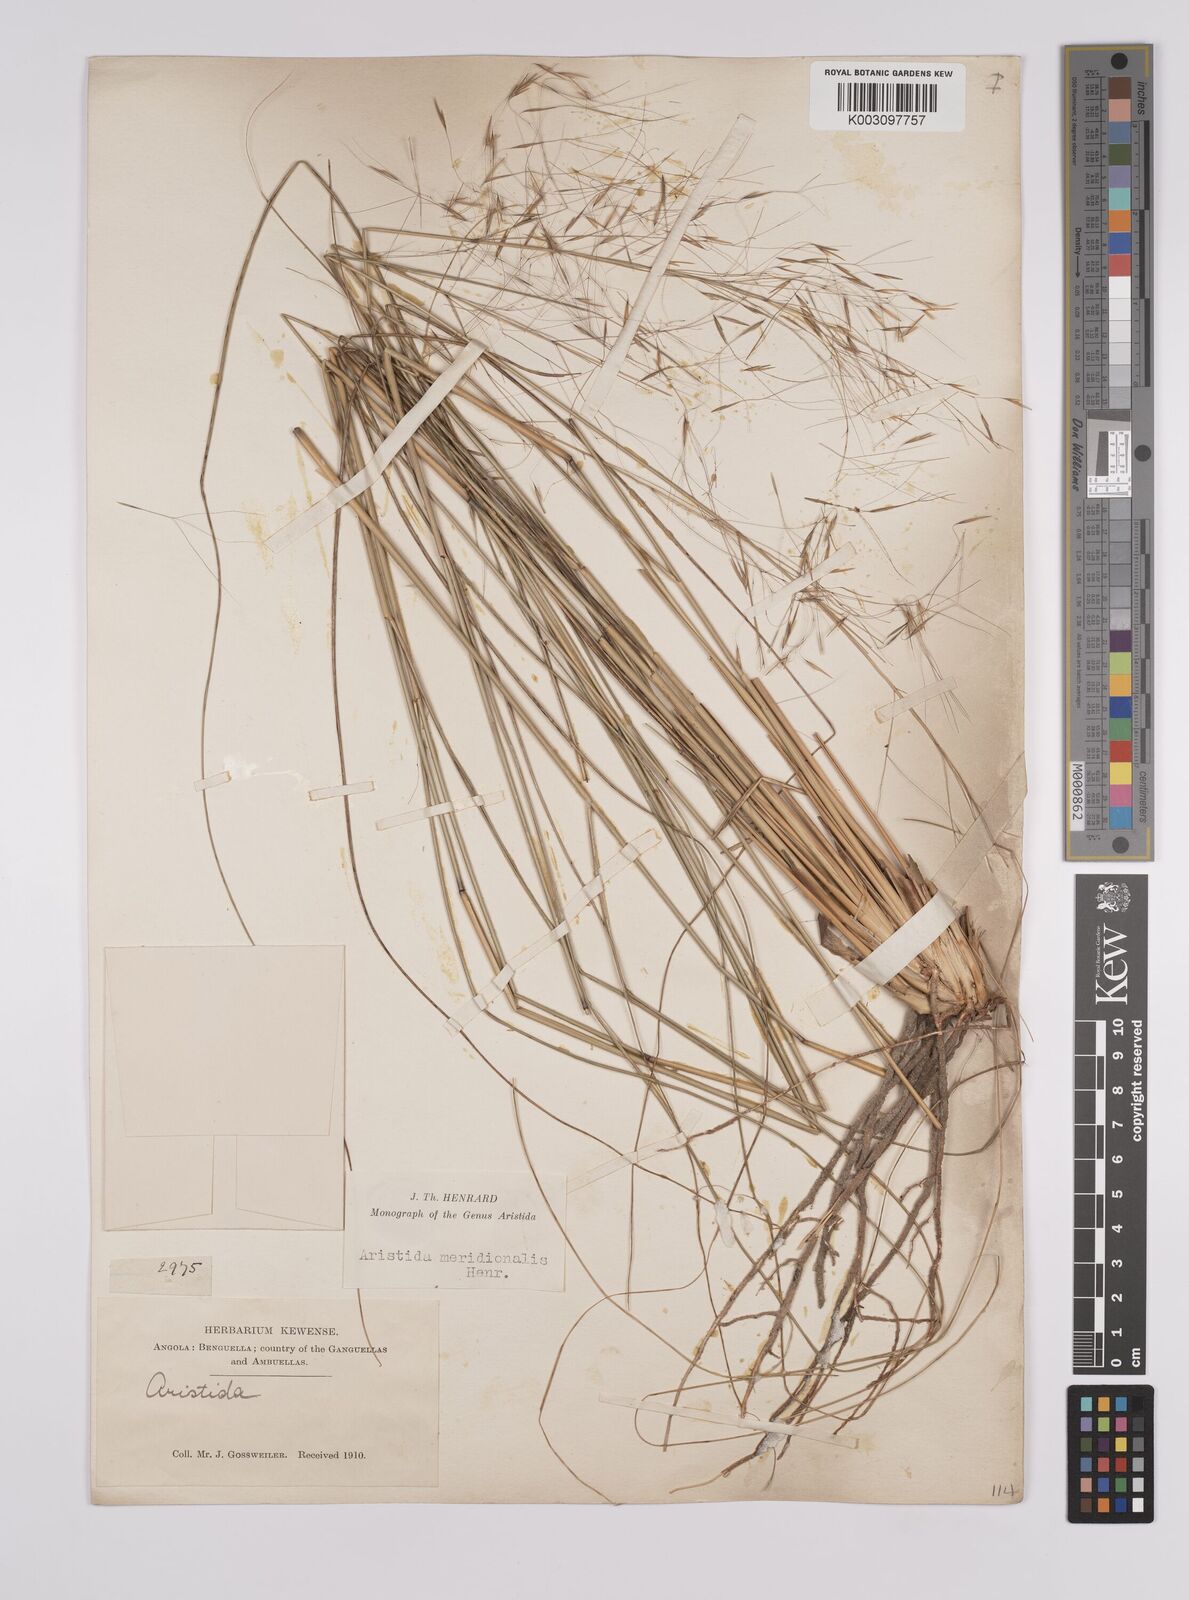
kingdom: Plantae
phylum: Tracheophyta
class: Liliopsida
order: Poales
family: Poaceae
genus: Aristida
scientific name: Aristida meridionalis
